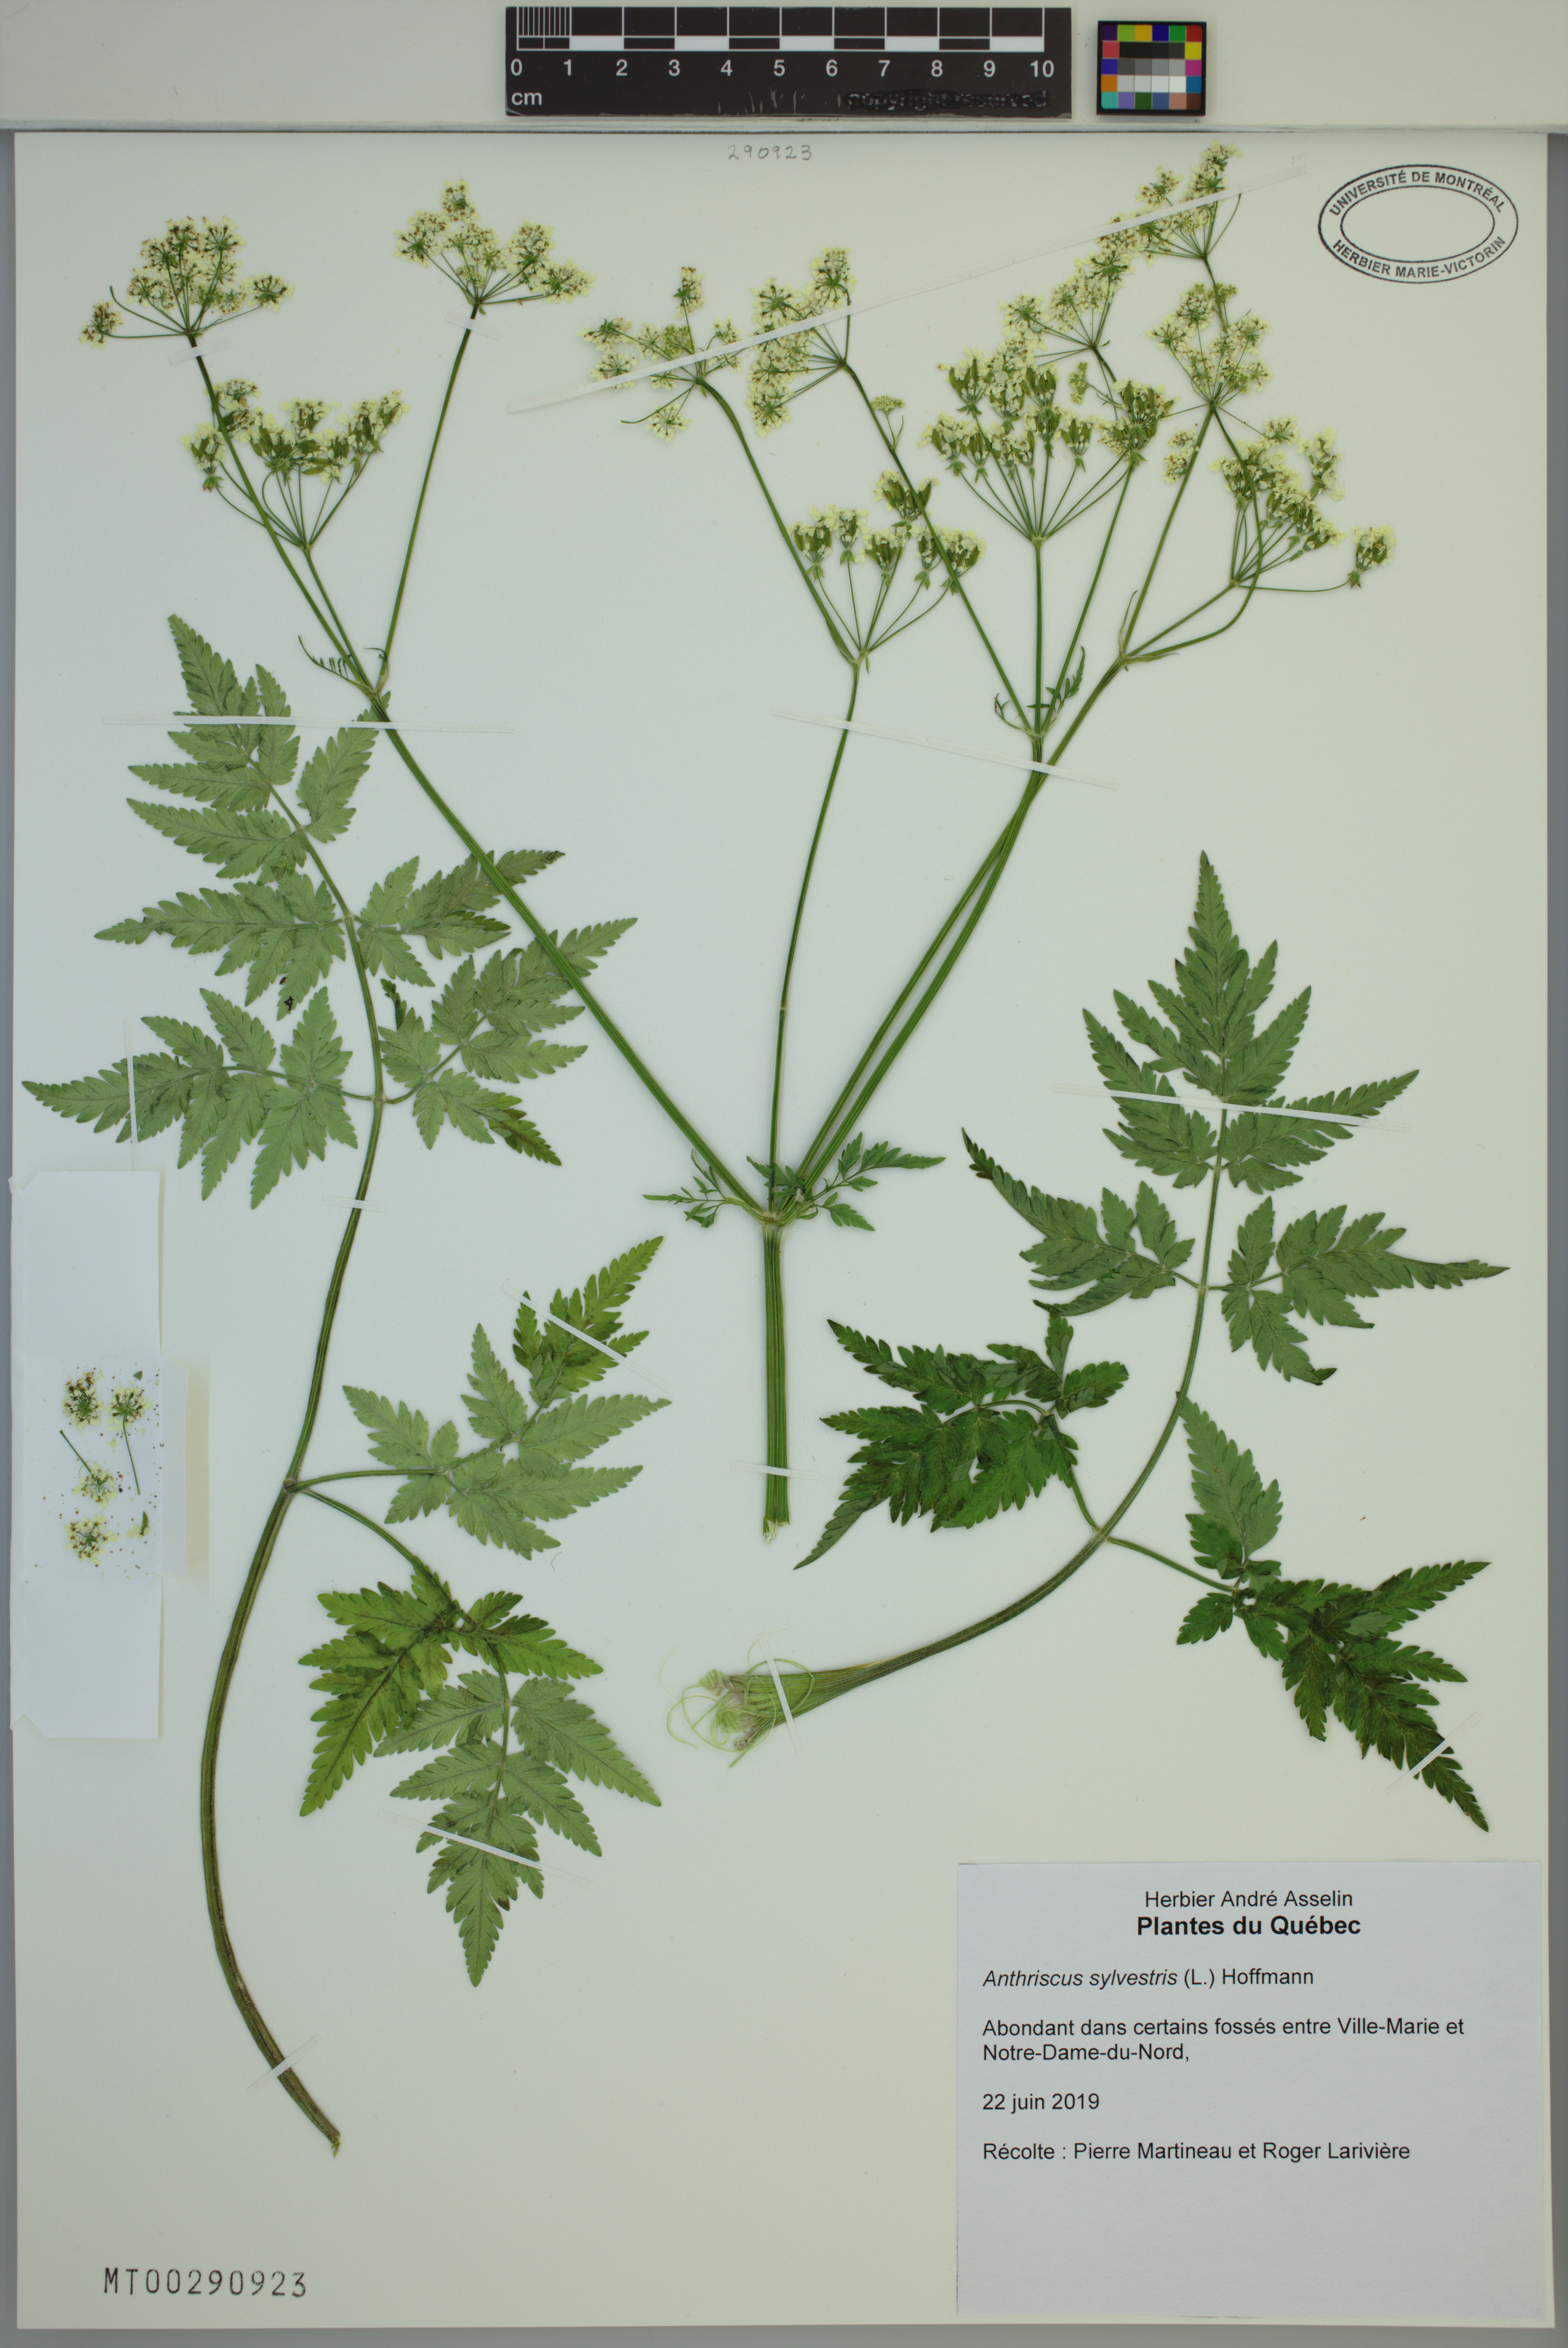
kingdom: Plantae
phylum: Tracheophyta
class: Magnoliopsida
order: Apiales
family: Apiaceae
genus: Anthriscus
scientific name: Anthriscus sylvestris
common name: Cow parsley
